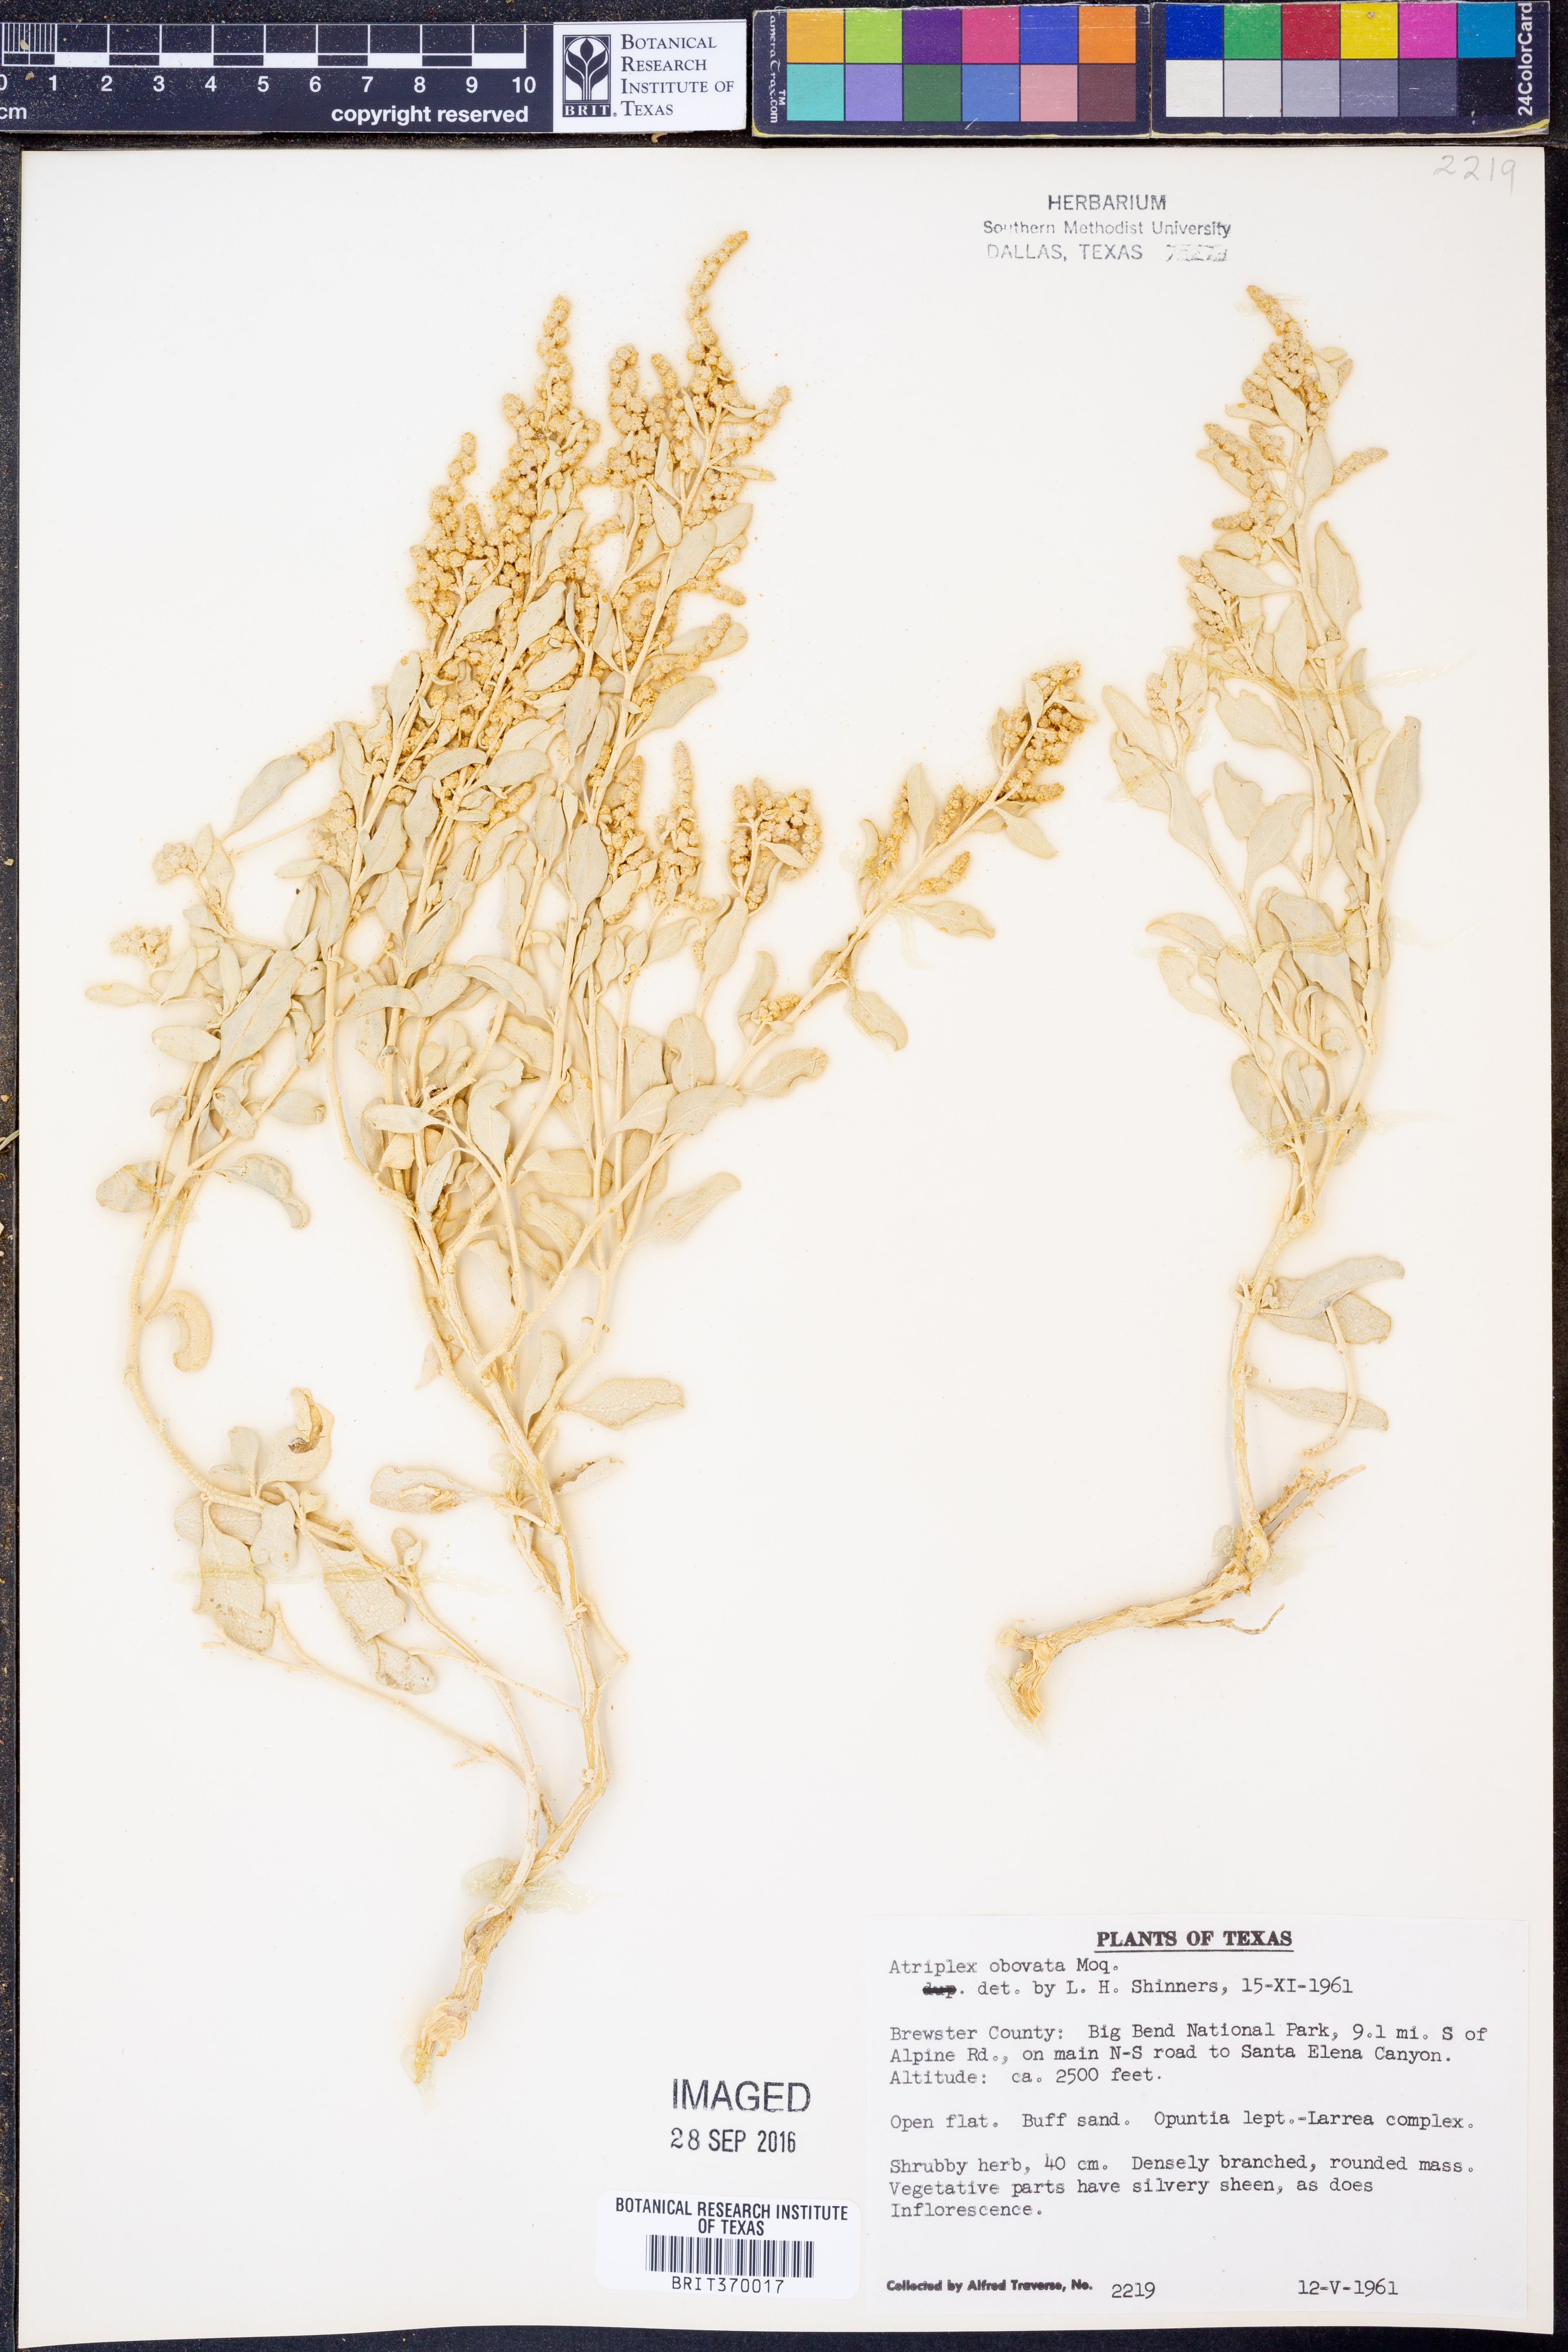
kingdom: Plantae
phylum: Tracheophyta
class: Magnoliopsida
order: Caryophyllales
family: Amaranthaceae
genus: Atriplex
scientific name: Atriplex obovata
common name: New mexico saltbush
